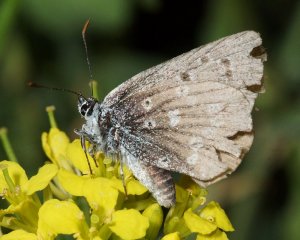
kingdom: Animalia
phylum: Arthropoda
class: Insecta
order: Lepidoptera
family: Lycaenidae
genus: Icaricia
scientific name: Icaricia icarioides
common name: Boisduval's Blue
